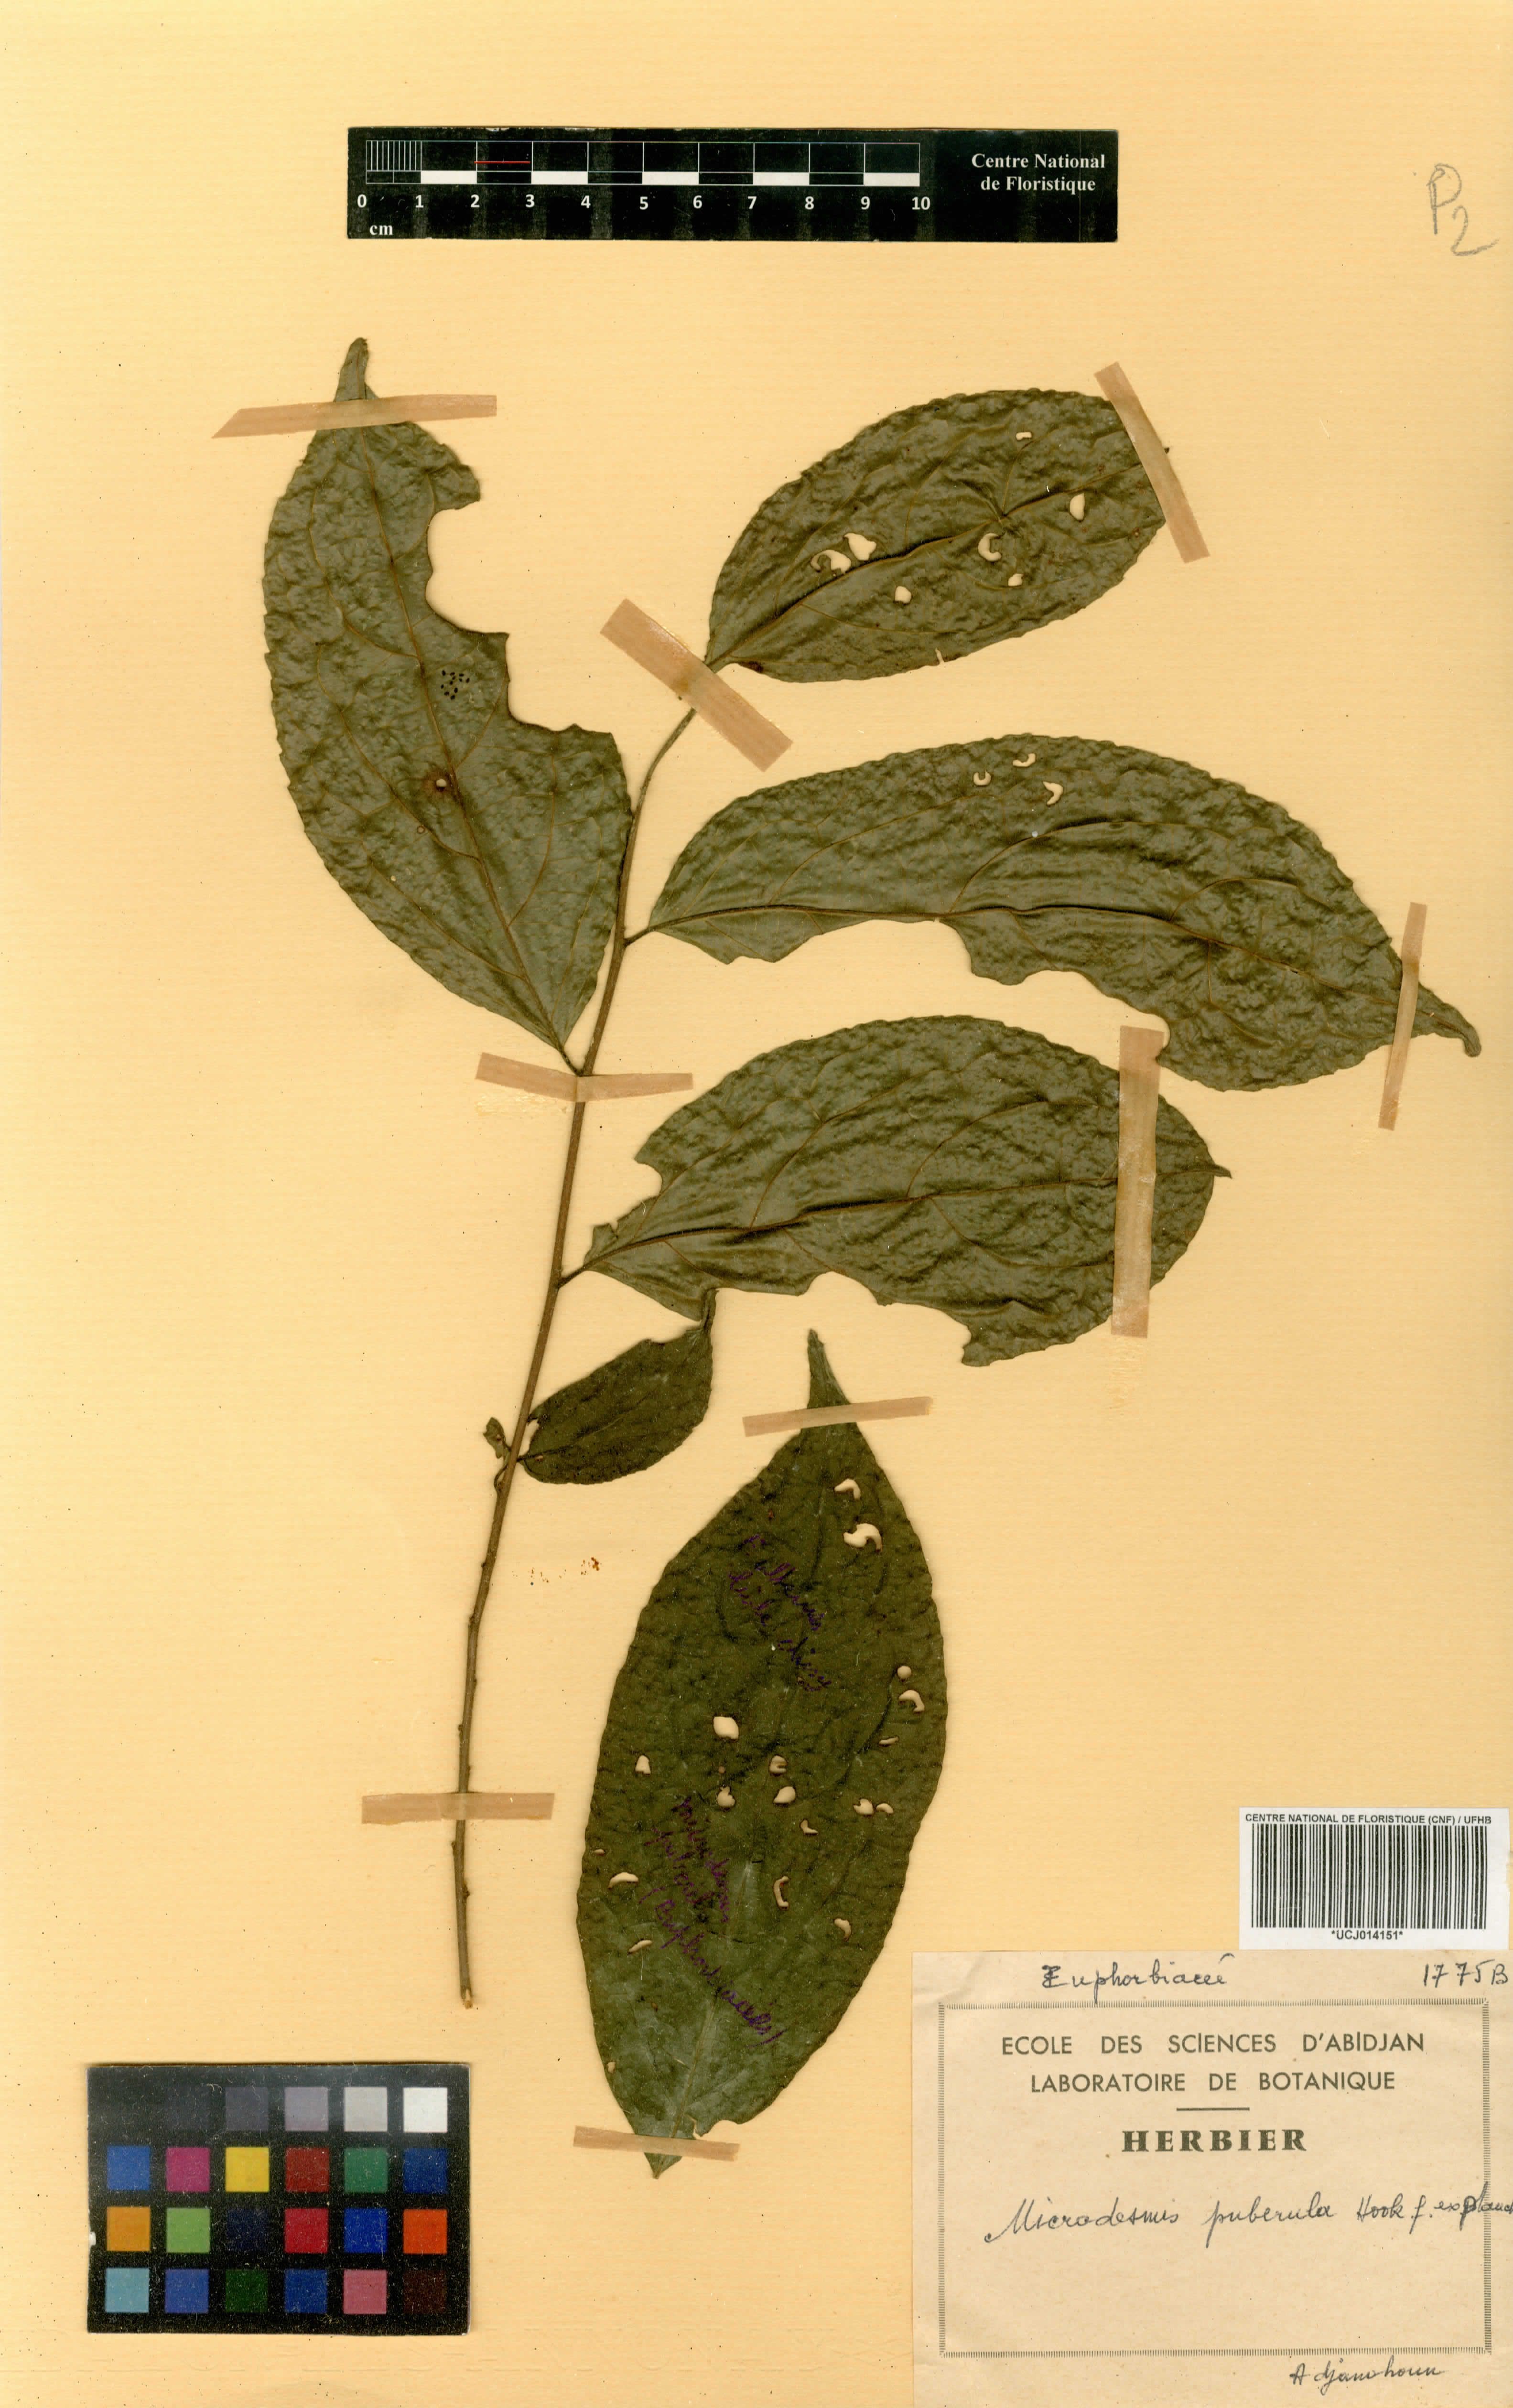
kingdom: Plantae
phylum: Tracheophyta
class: Magnoliopsida
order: Malpighiales
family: Pandaceae
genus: Microdesmis
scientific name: Microdesmis puberula
